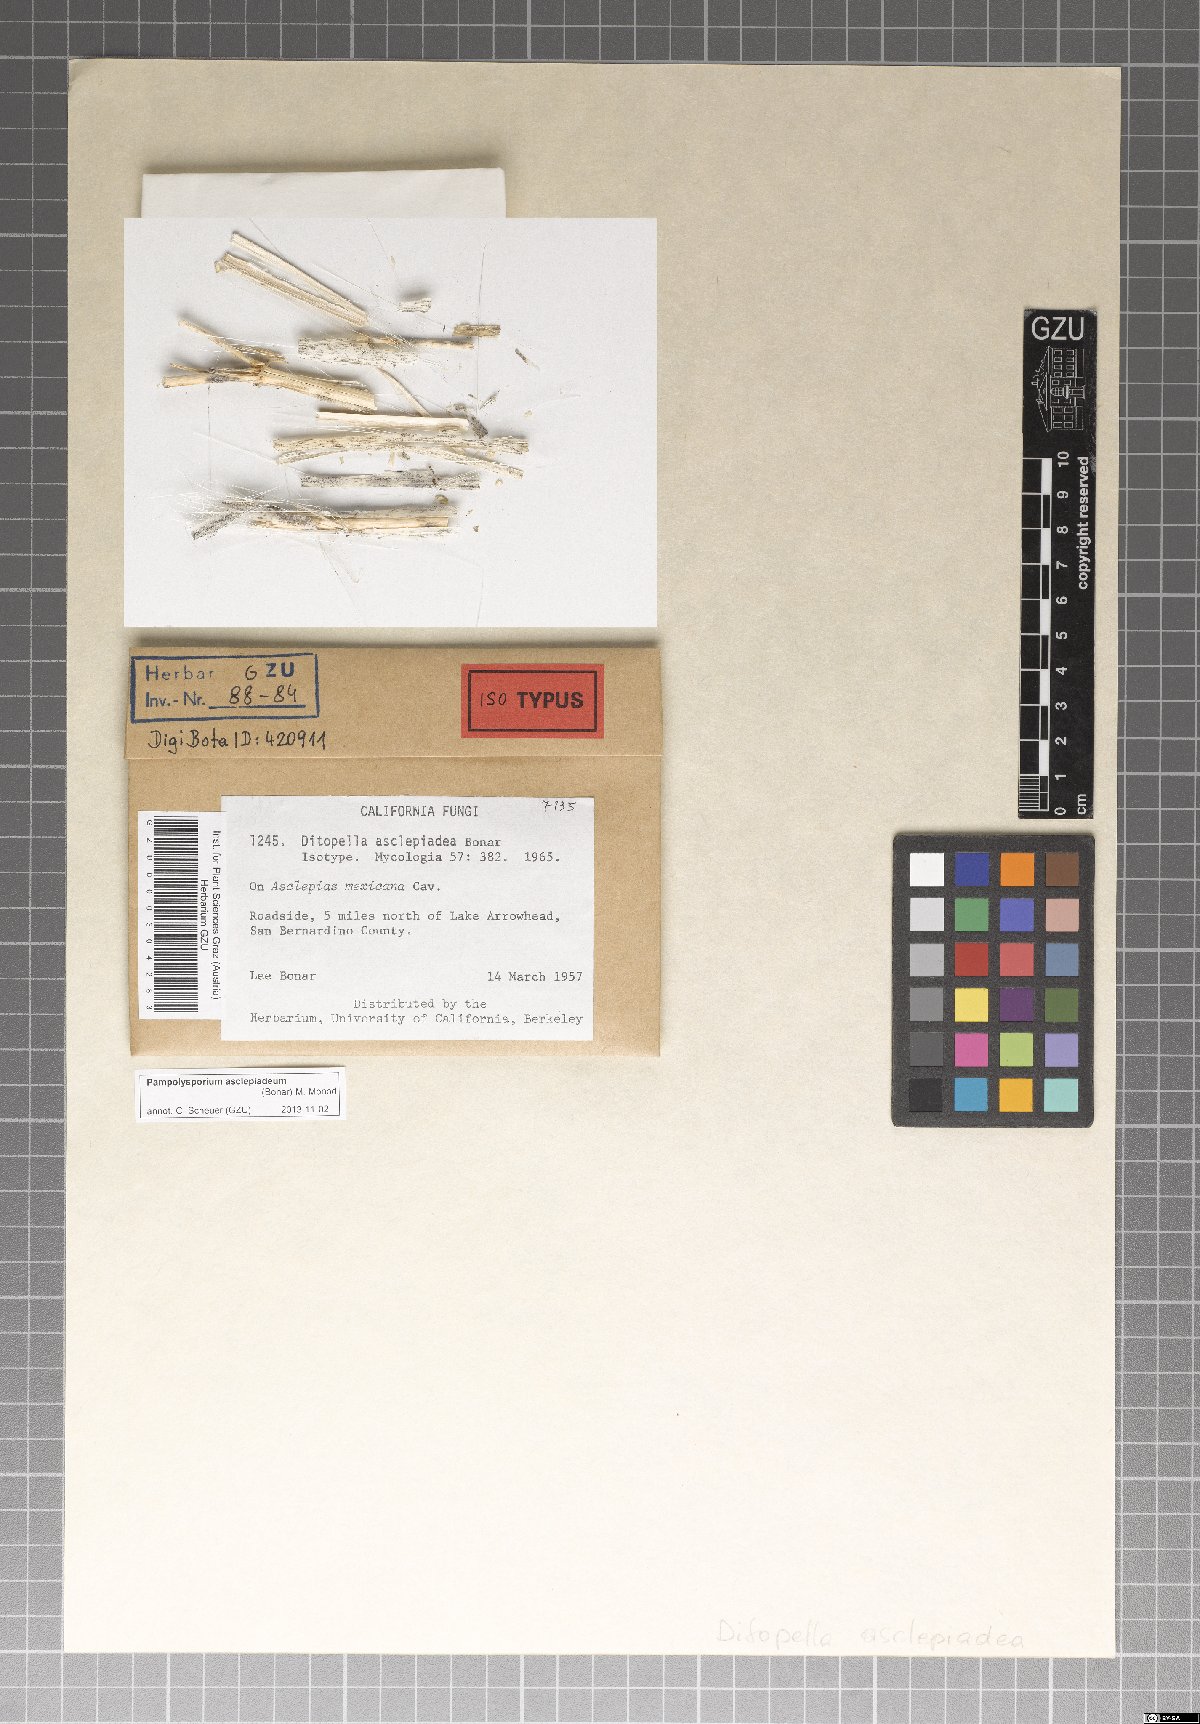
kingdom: Fungi
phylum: Ascomycota
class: Dothideomycetes
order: Botryosphaeriales
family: Phyllostictaceae
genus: Pampolysporium
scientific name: Pampolysporium asclepiadeum
